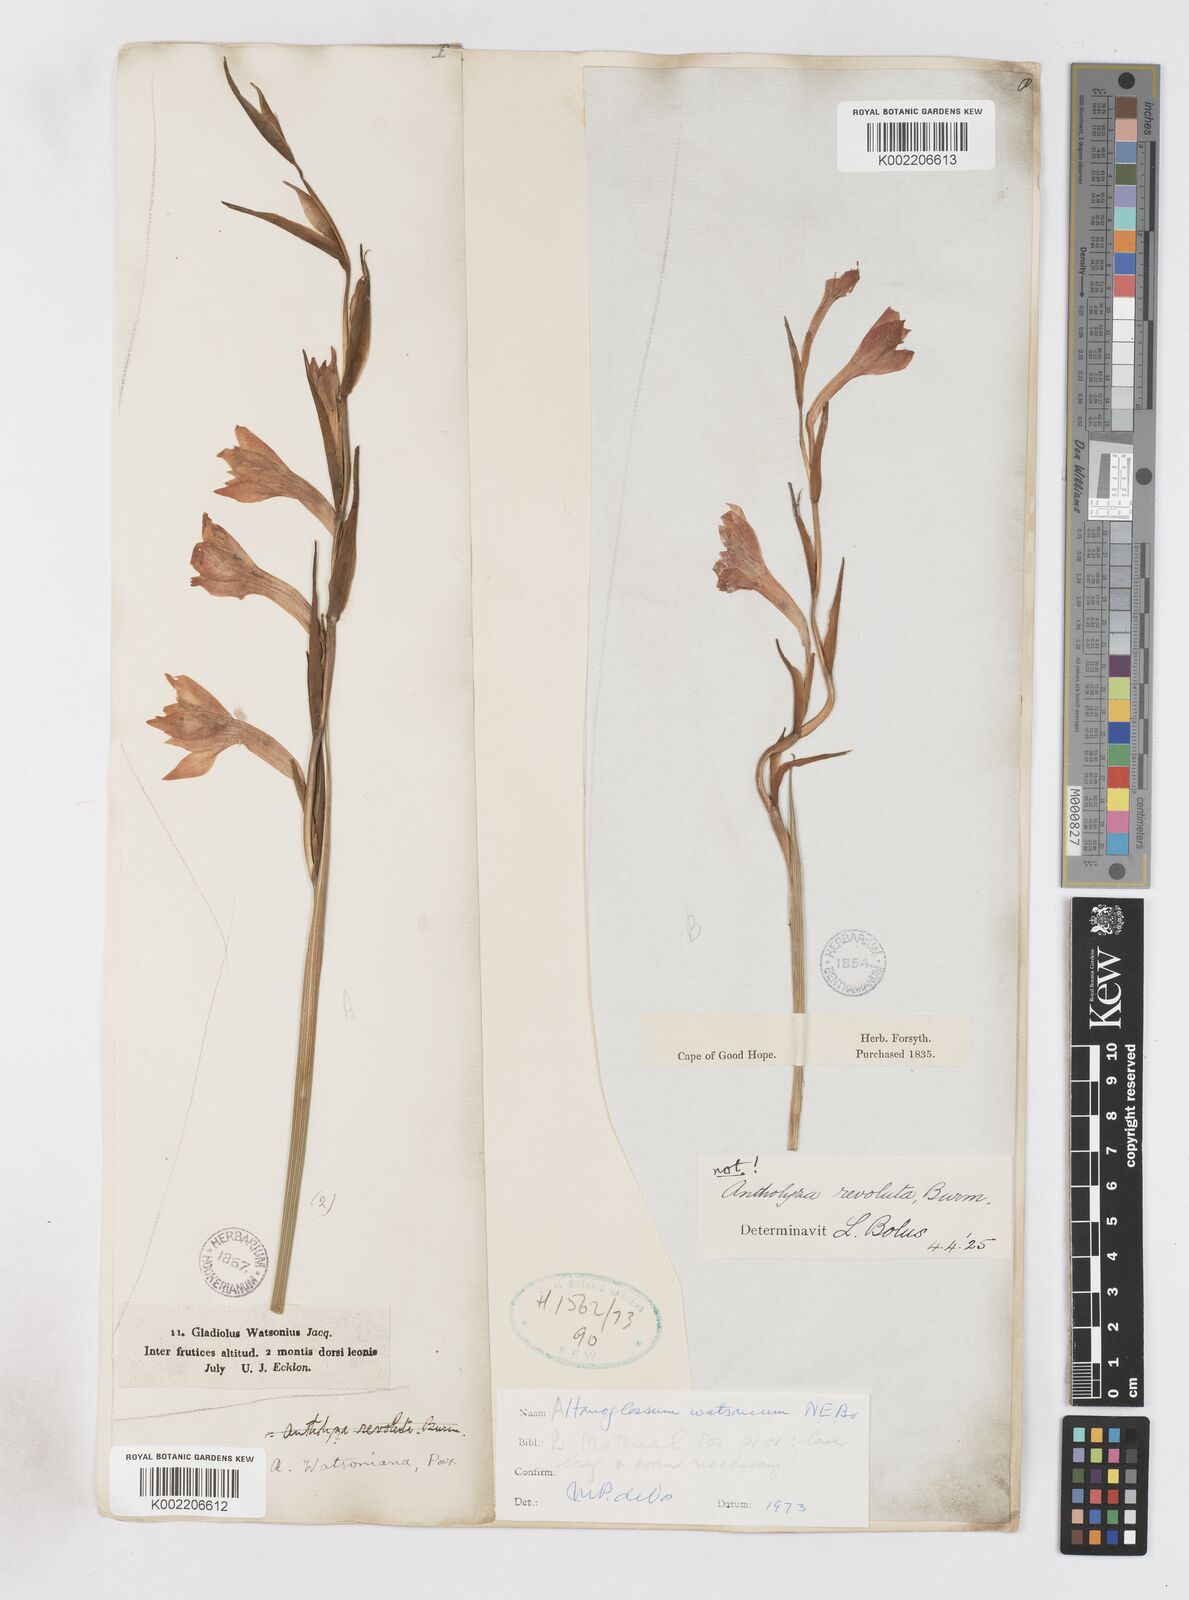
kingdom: Plantae
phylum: Tracheophyta
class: Liliopsida
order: Asparagales
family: Iridaceae
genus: Gladiolus
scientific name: Gladiolus watsonius
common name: Red afrikaner
